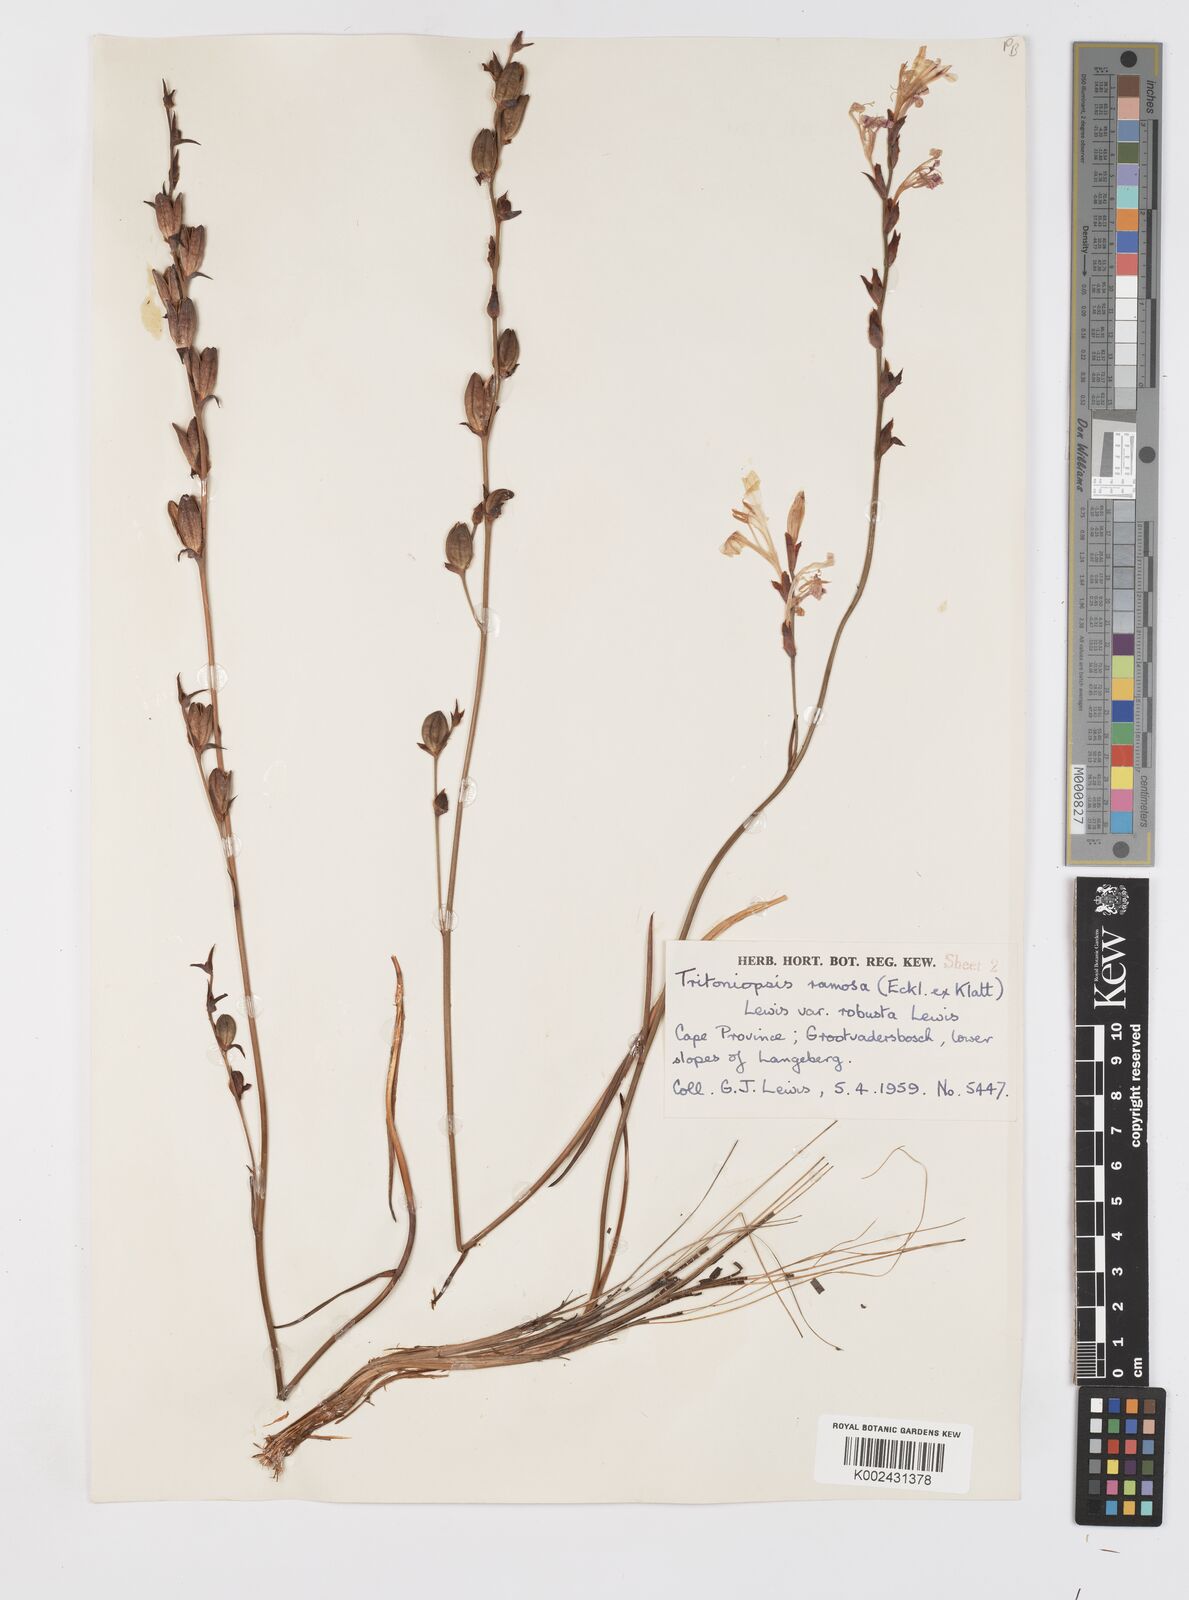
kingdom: Plantae
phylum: Tracheophyta
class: Liliopsida
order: Asparagales
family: Iridaceae
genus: Tritoniopsis
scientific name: Tritoniopsis ramosa
